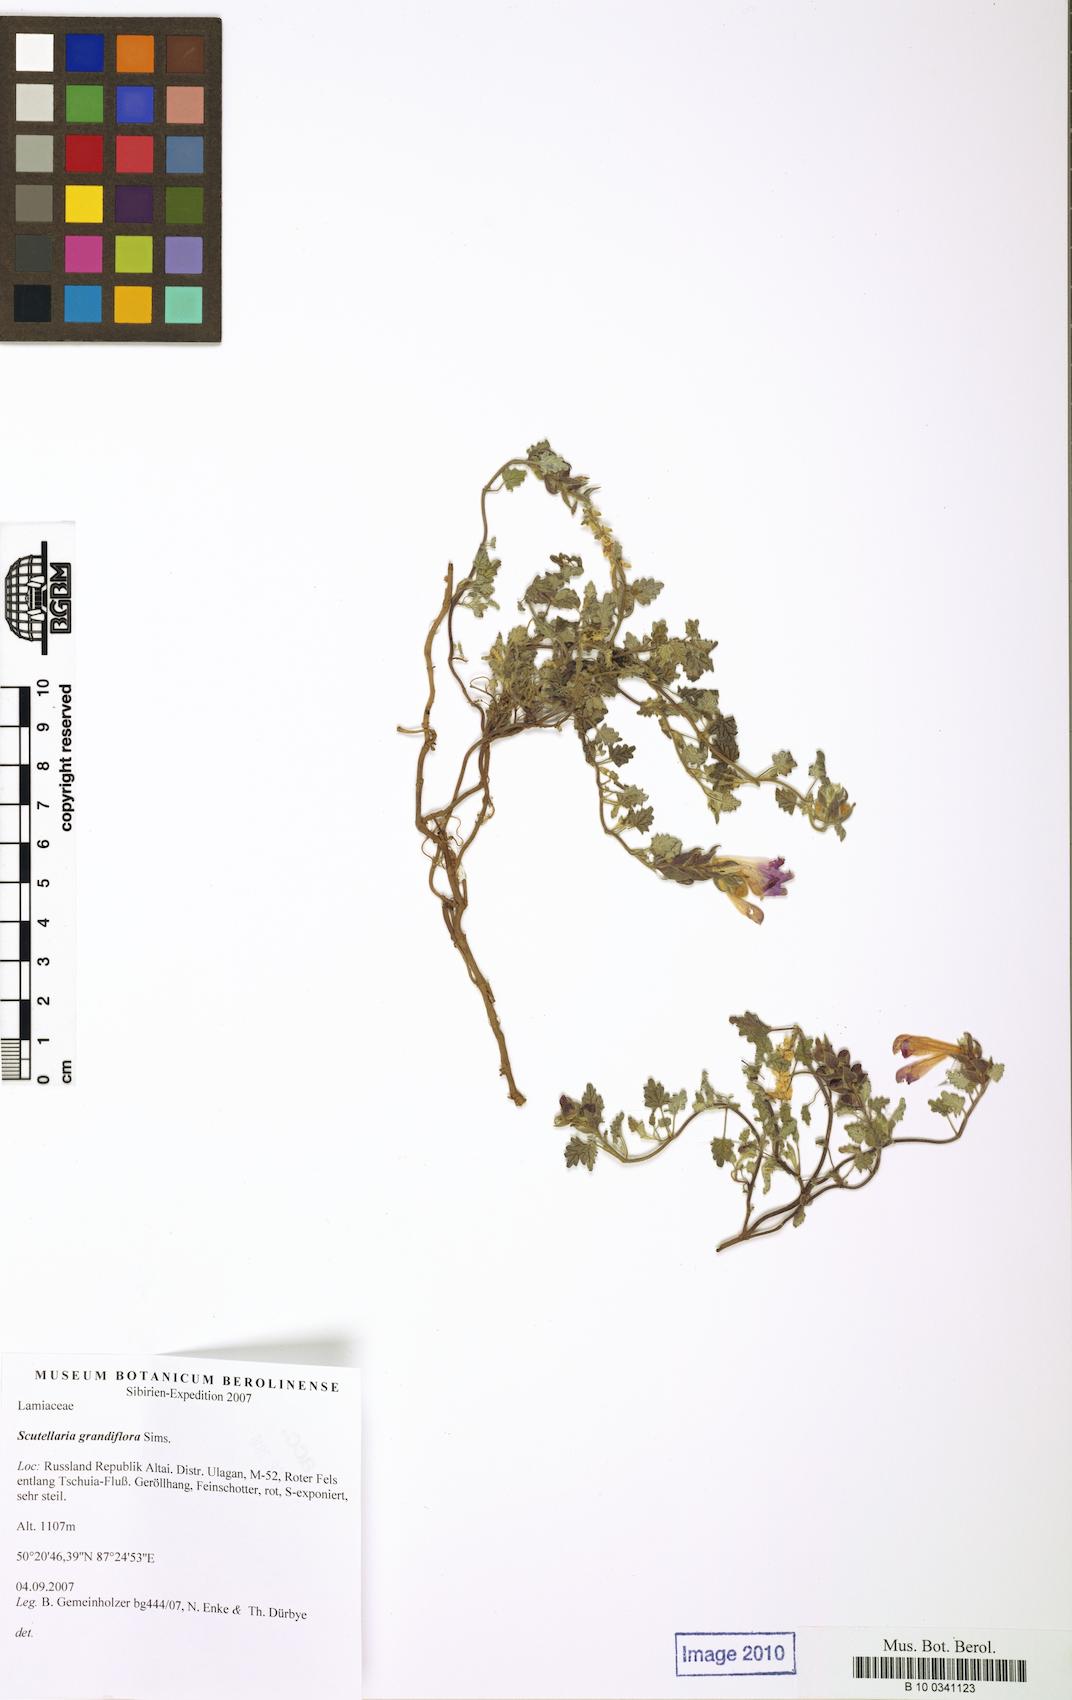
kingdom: Plantae
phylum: Tracheophyta
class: Magnoliopsida
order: Lamiales
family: Lamiaceae
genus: Scutellaria
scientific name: Scutellaria prostrata
